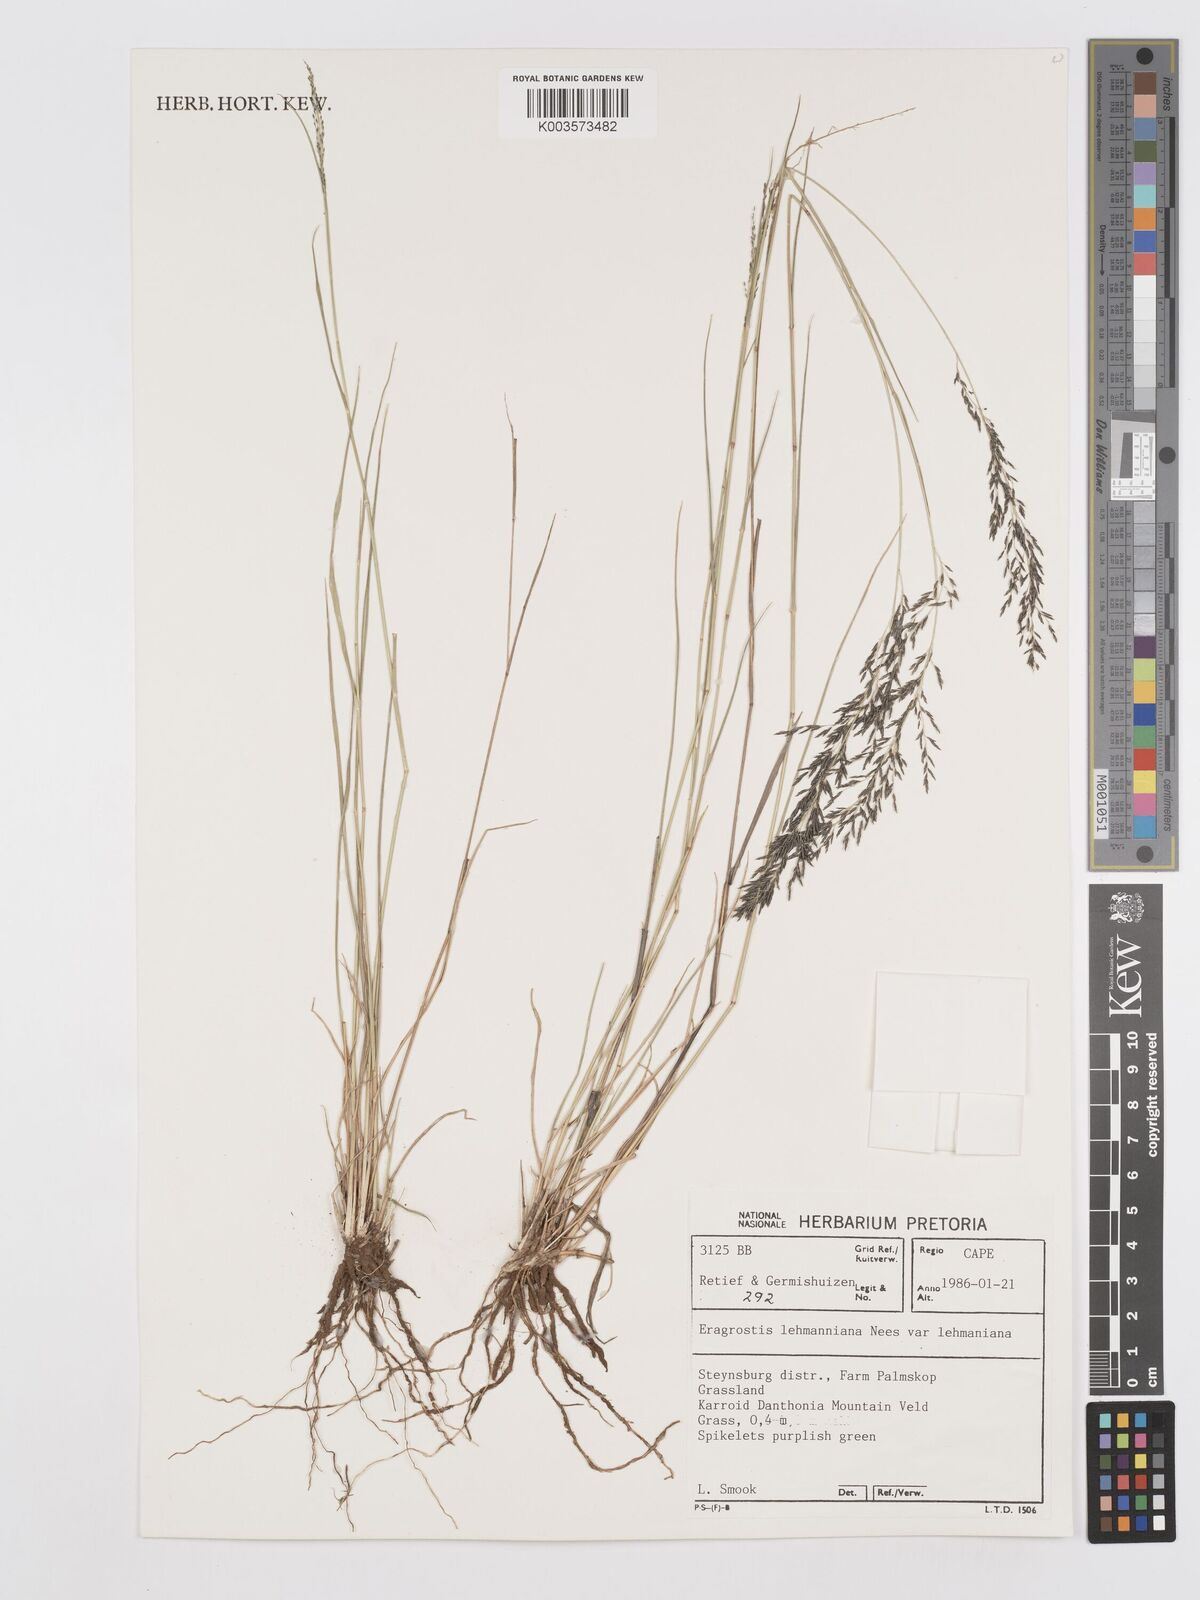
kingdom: Plantae
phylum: Tracheophyta
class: Liliopsida
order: Poales
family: Poaceae
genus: Eragrostis
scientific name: Eragrostis lehmanniana
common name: Lehmann lovegrass
